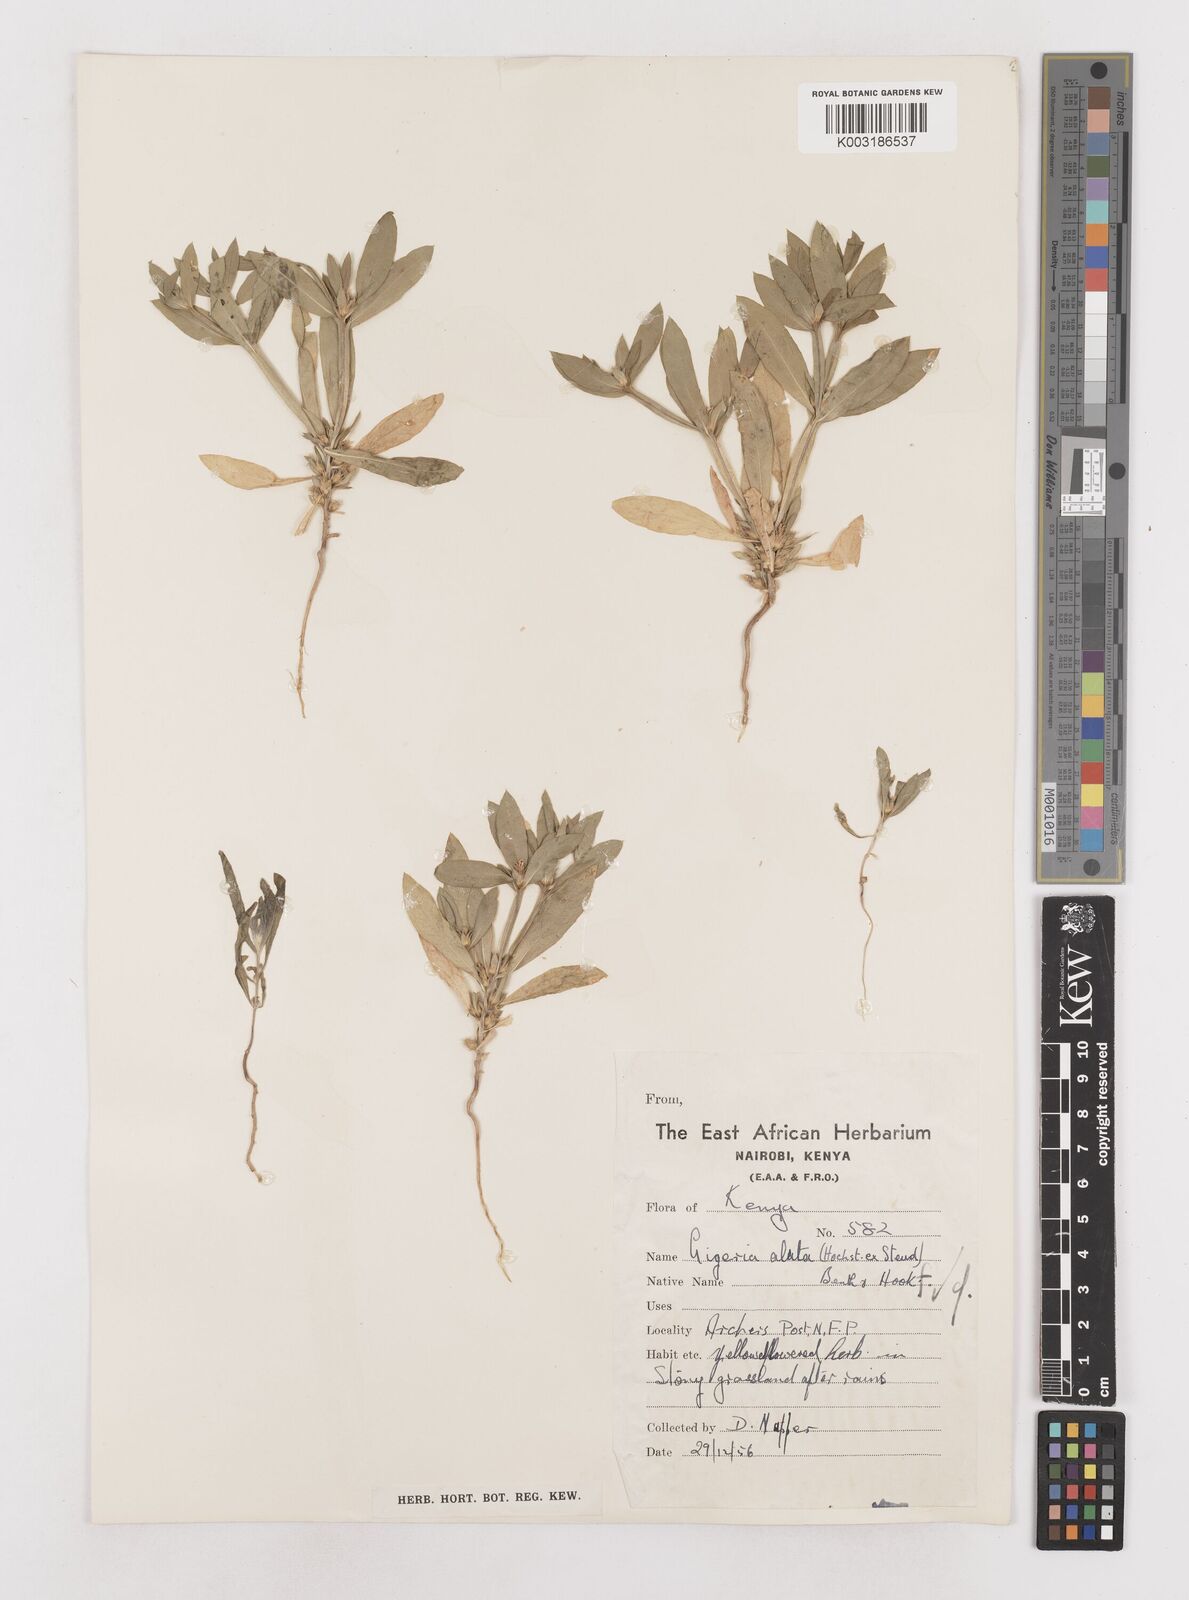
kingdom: Plantae
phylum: Tracheophyta
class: Magnoliopsida
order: Asterales
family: Asteraceae
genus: Geigeria
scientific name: Geigeria alata
